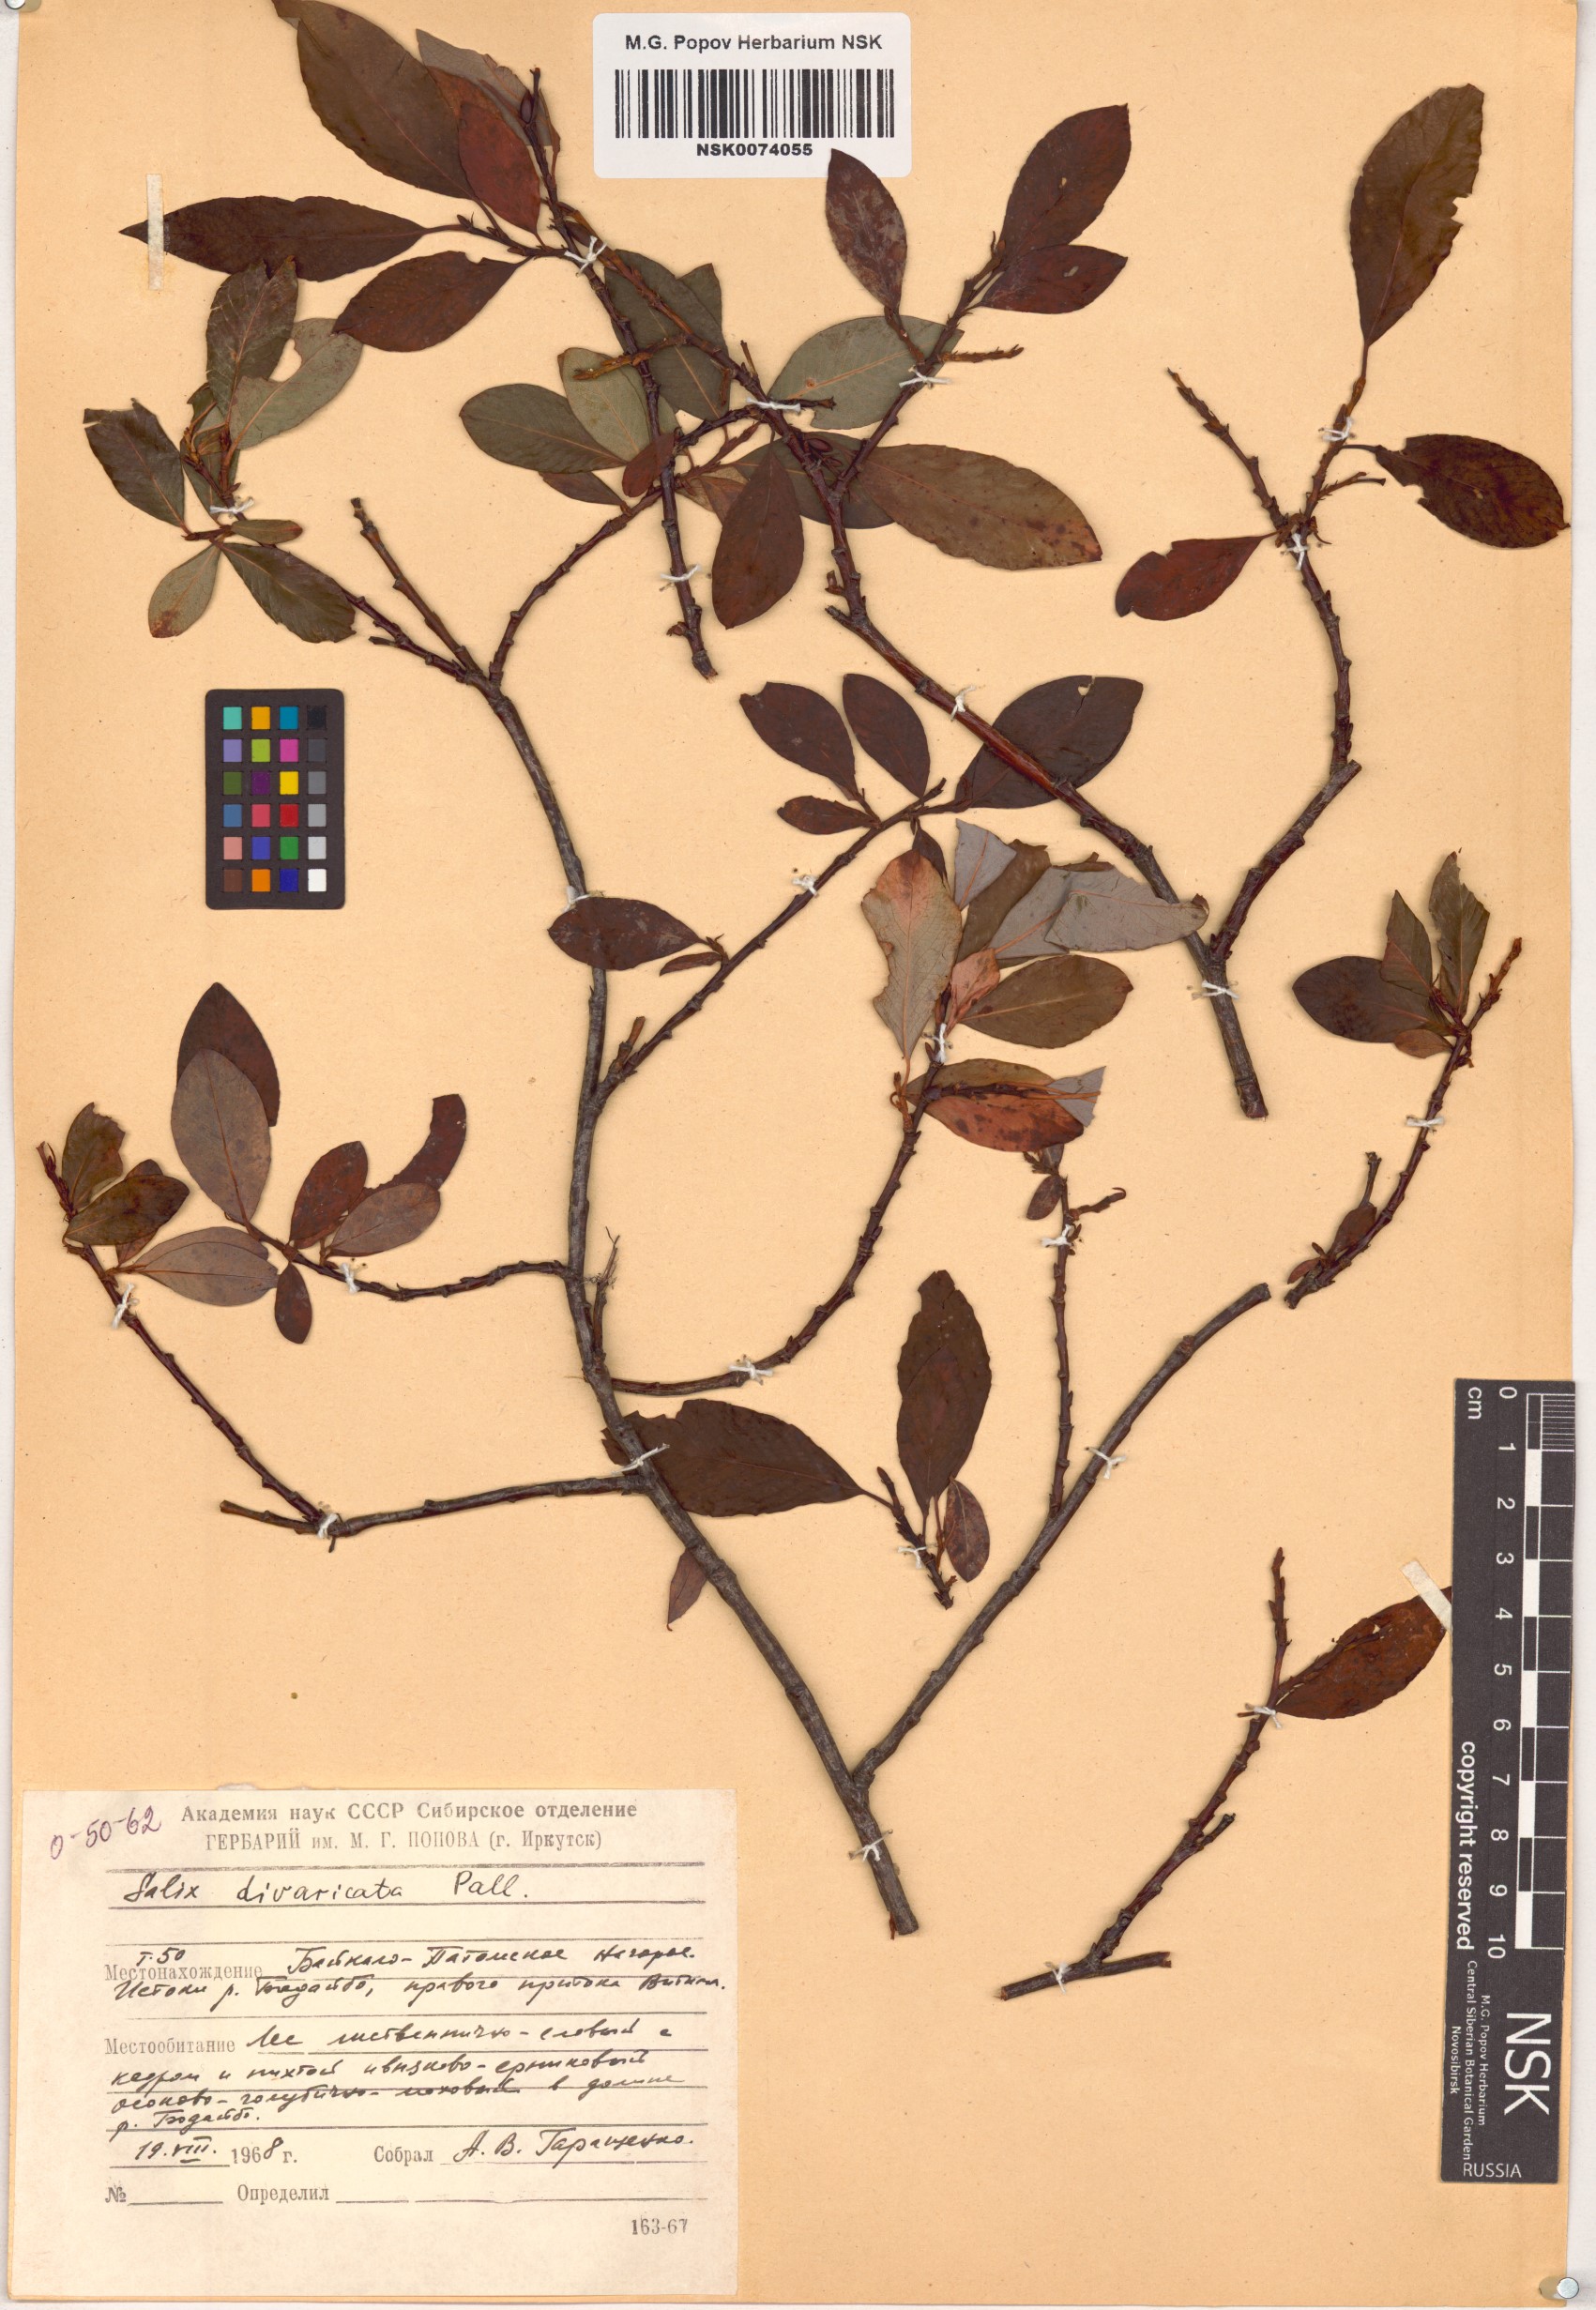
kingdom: Plantae
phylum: Tracheophyta
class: Magnoliopsida
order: Malpighiales
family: Salicaceae
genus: Salix
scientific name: Salix divaricata
